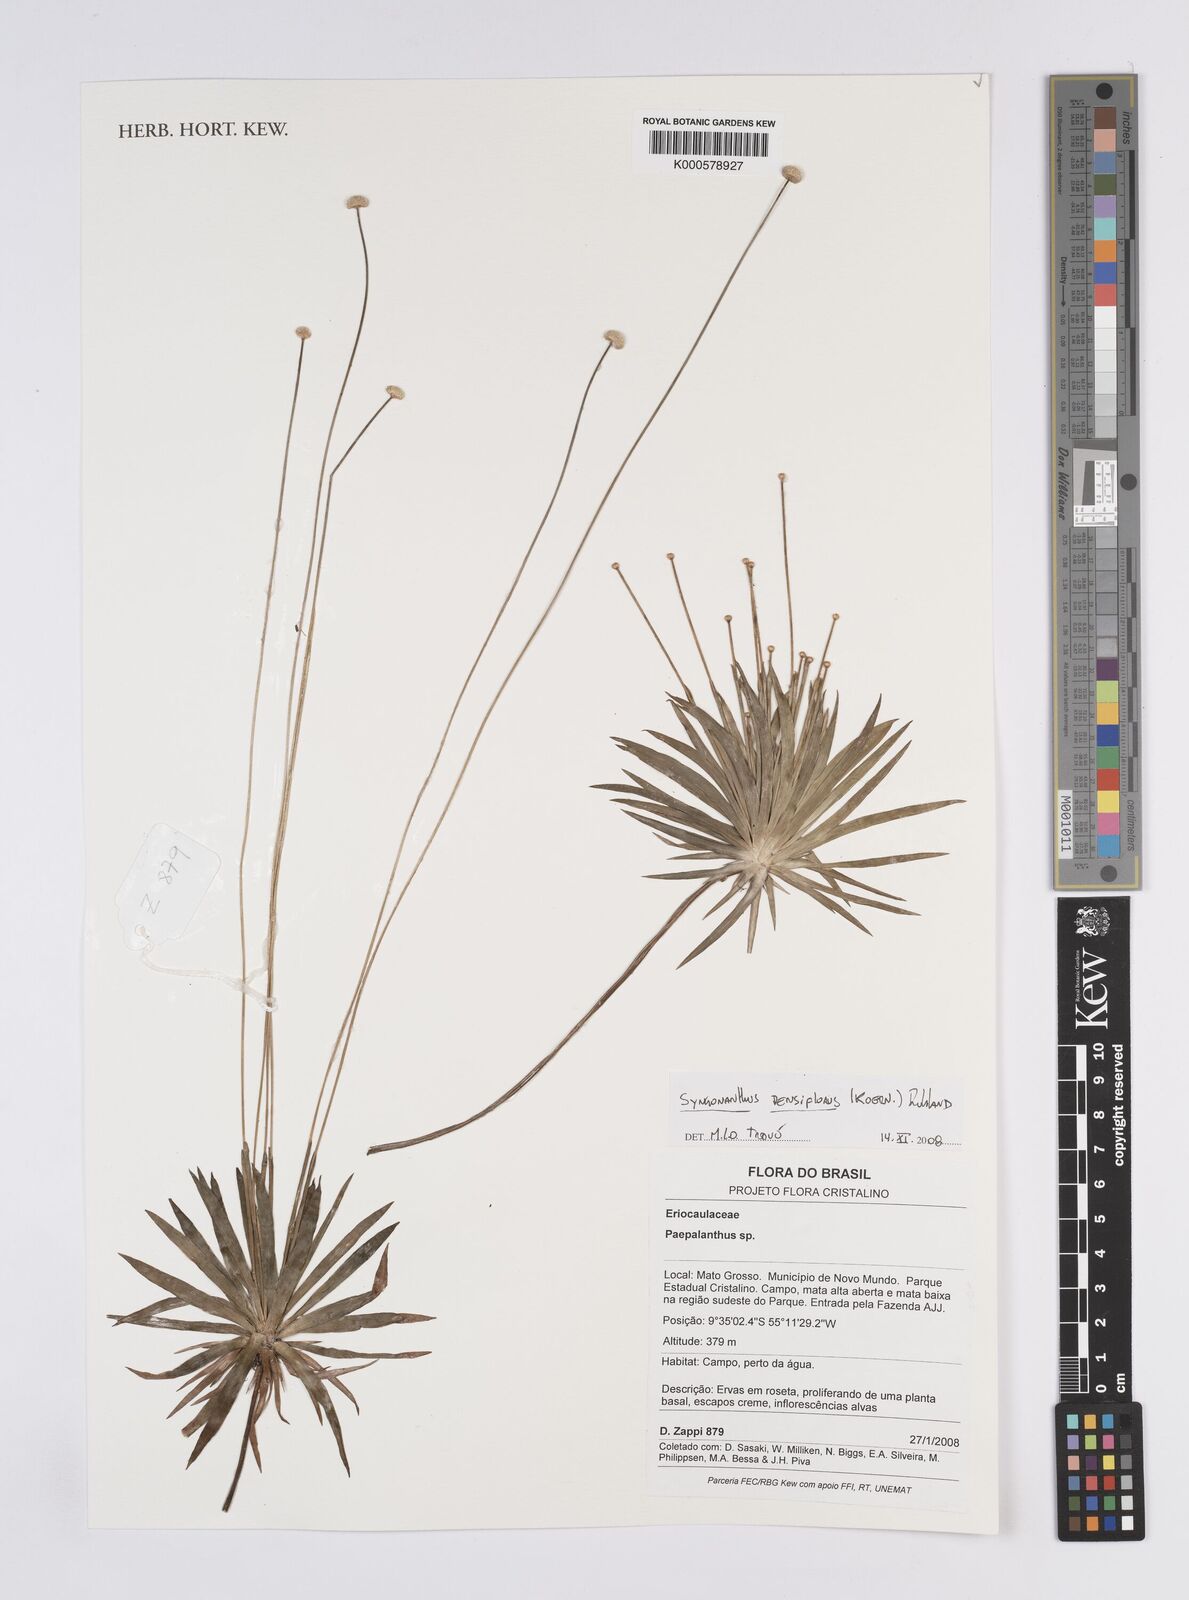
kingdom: Plantae
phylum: Tracheophyta
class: Liliopsida
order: Poales
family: Eriocaulaceae
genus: Syngonanthus
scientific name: Syngonanthus densiflorus
